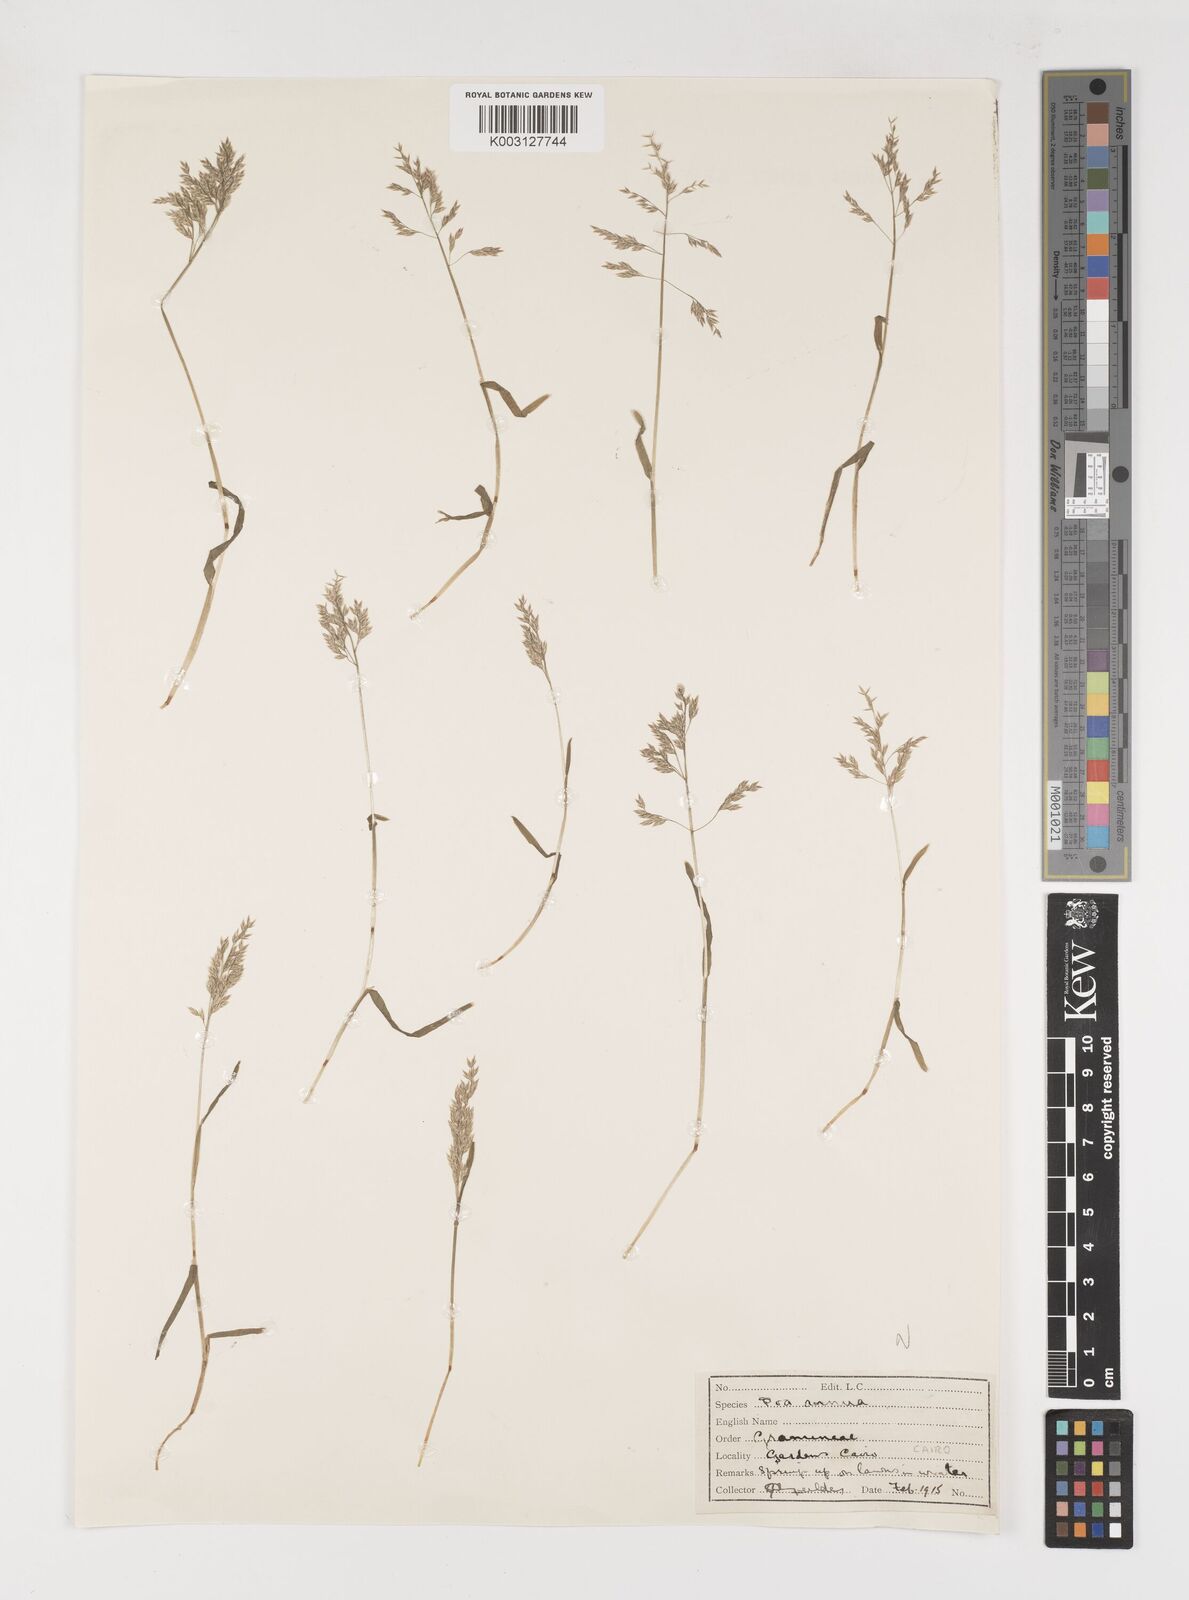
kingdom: Plantae
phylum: Tracheophyta
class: Liliopsida
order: Poales
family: Poaceae
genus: Poa
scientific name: Poa annua
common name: Annual bluegrass
